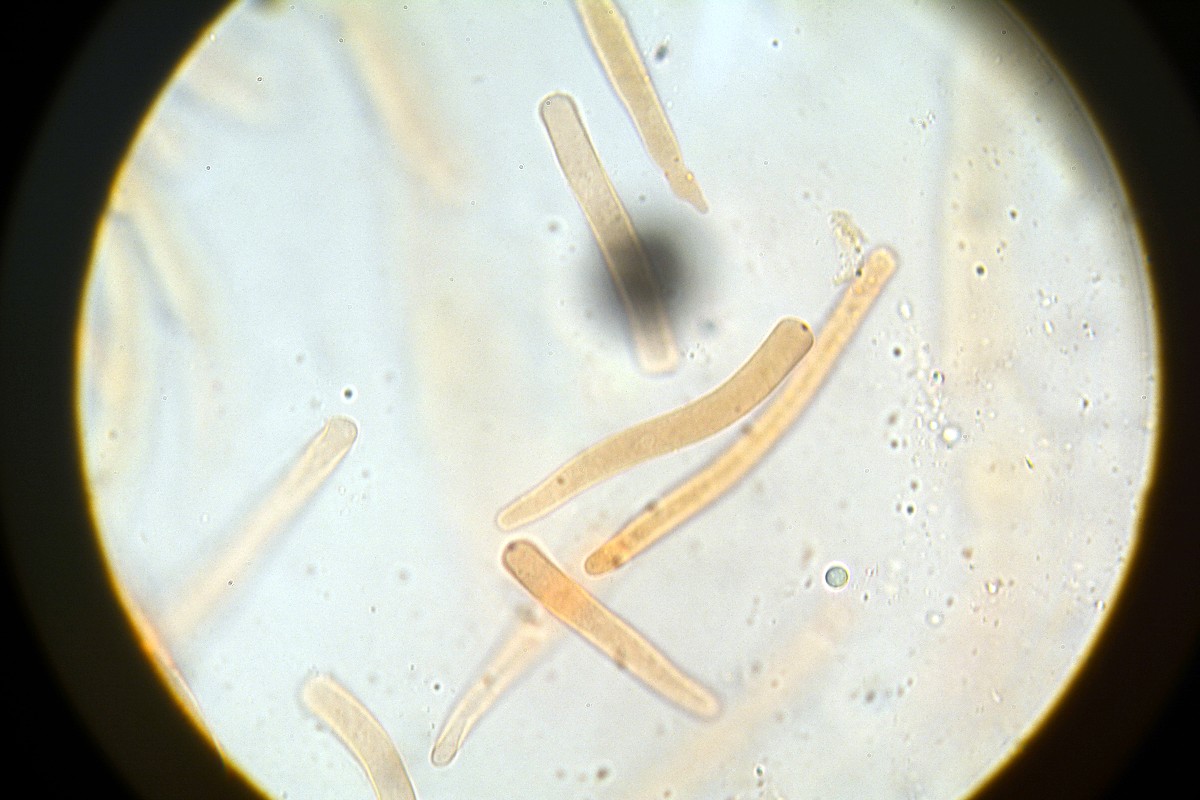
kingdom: Fungi
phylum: Basidiomycota
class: Agaricomycetes
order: Boletales
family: Boletaceae
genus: Leccinum
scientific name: Leccinum scabrum
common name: brun skælrørhat
